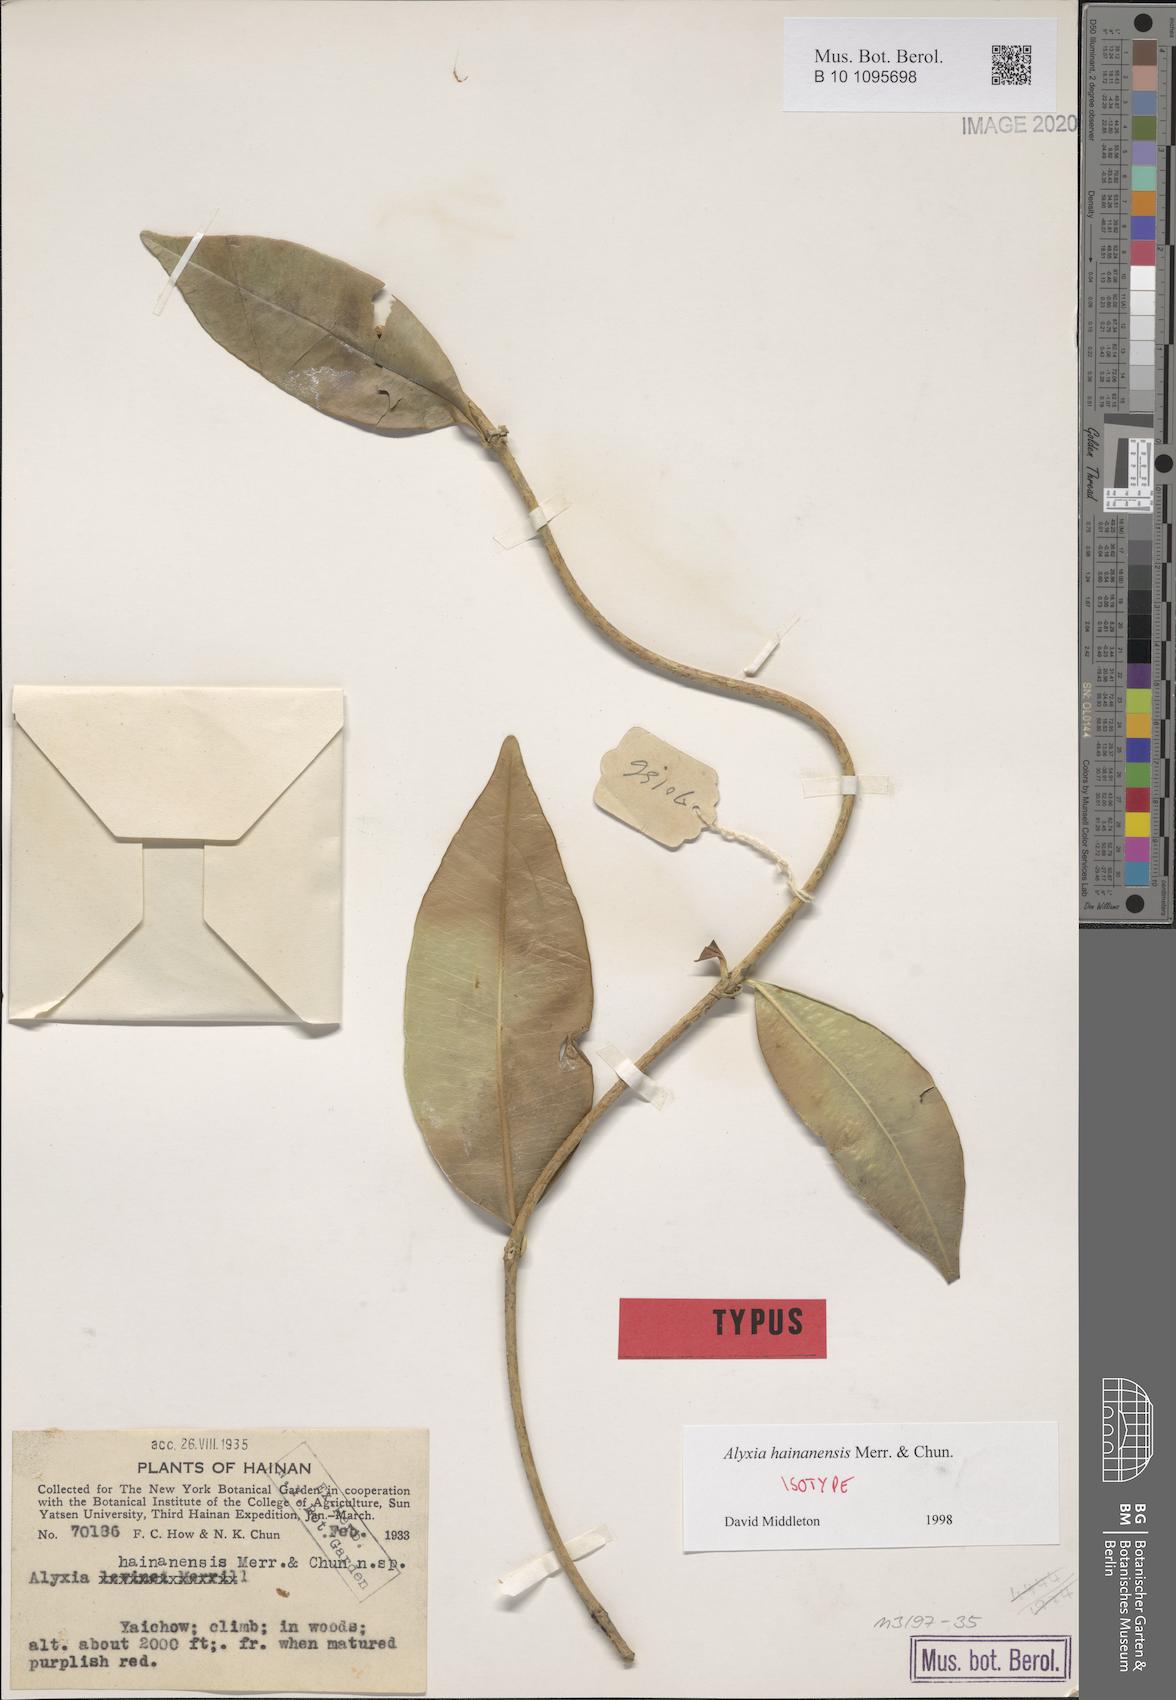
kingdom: Plantae
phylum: Tracheophyta
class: Magnoliopsida
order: Gentianales
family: Apocynaceae
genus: Alyxia
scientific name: Alyxia hainanensis
